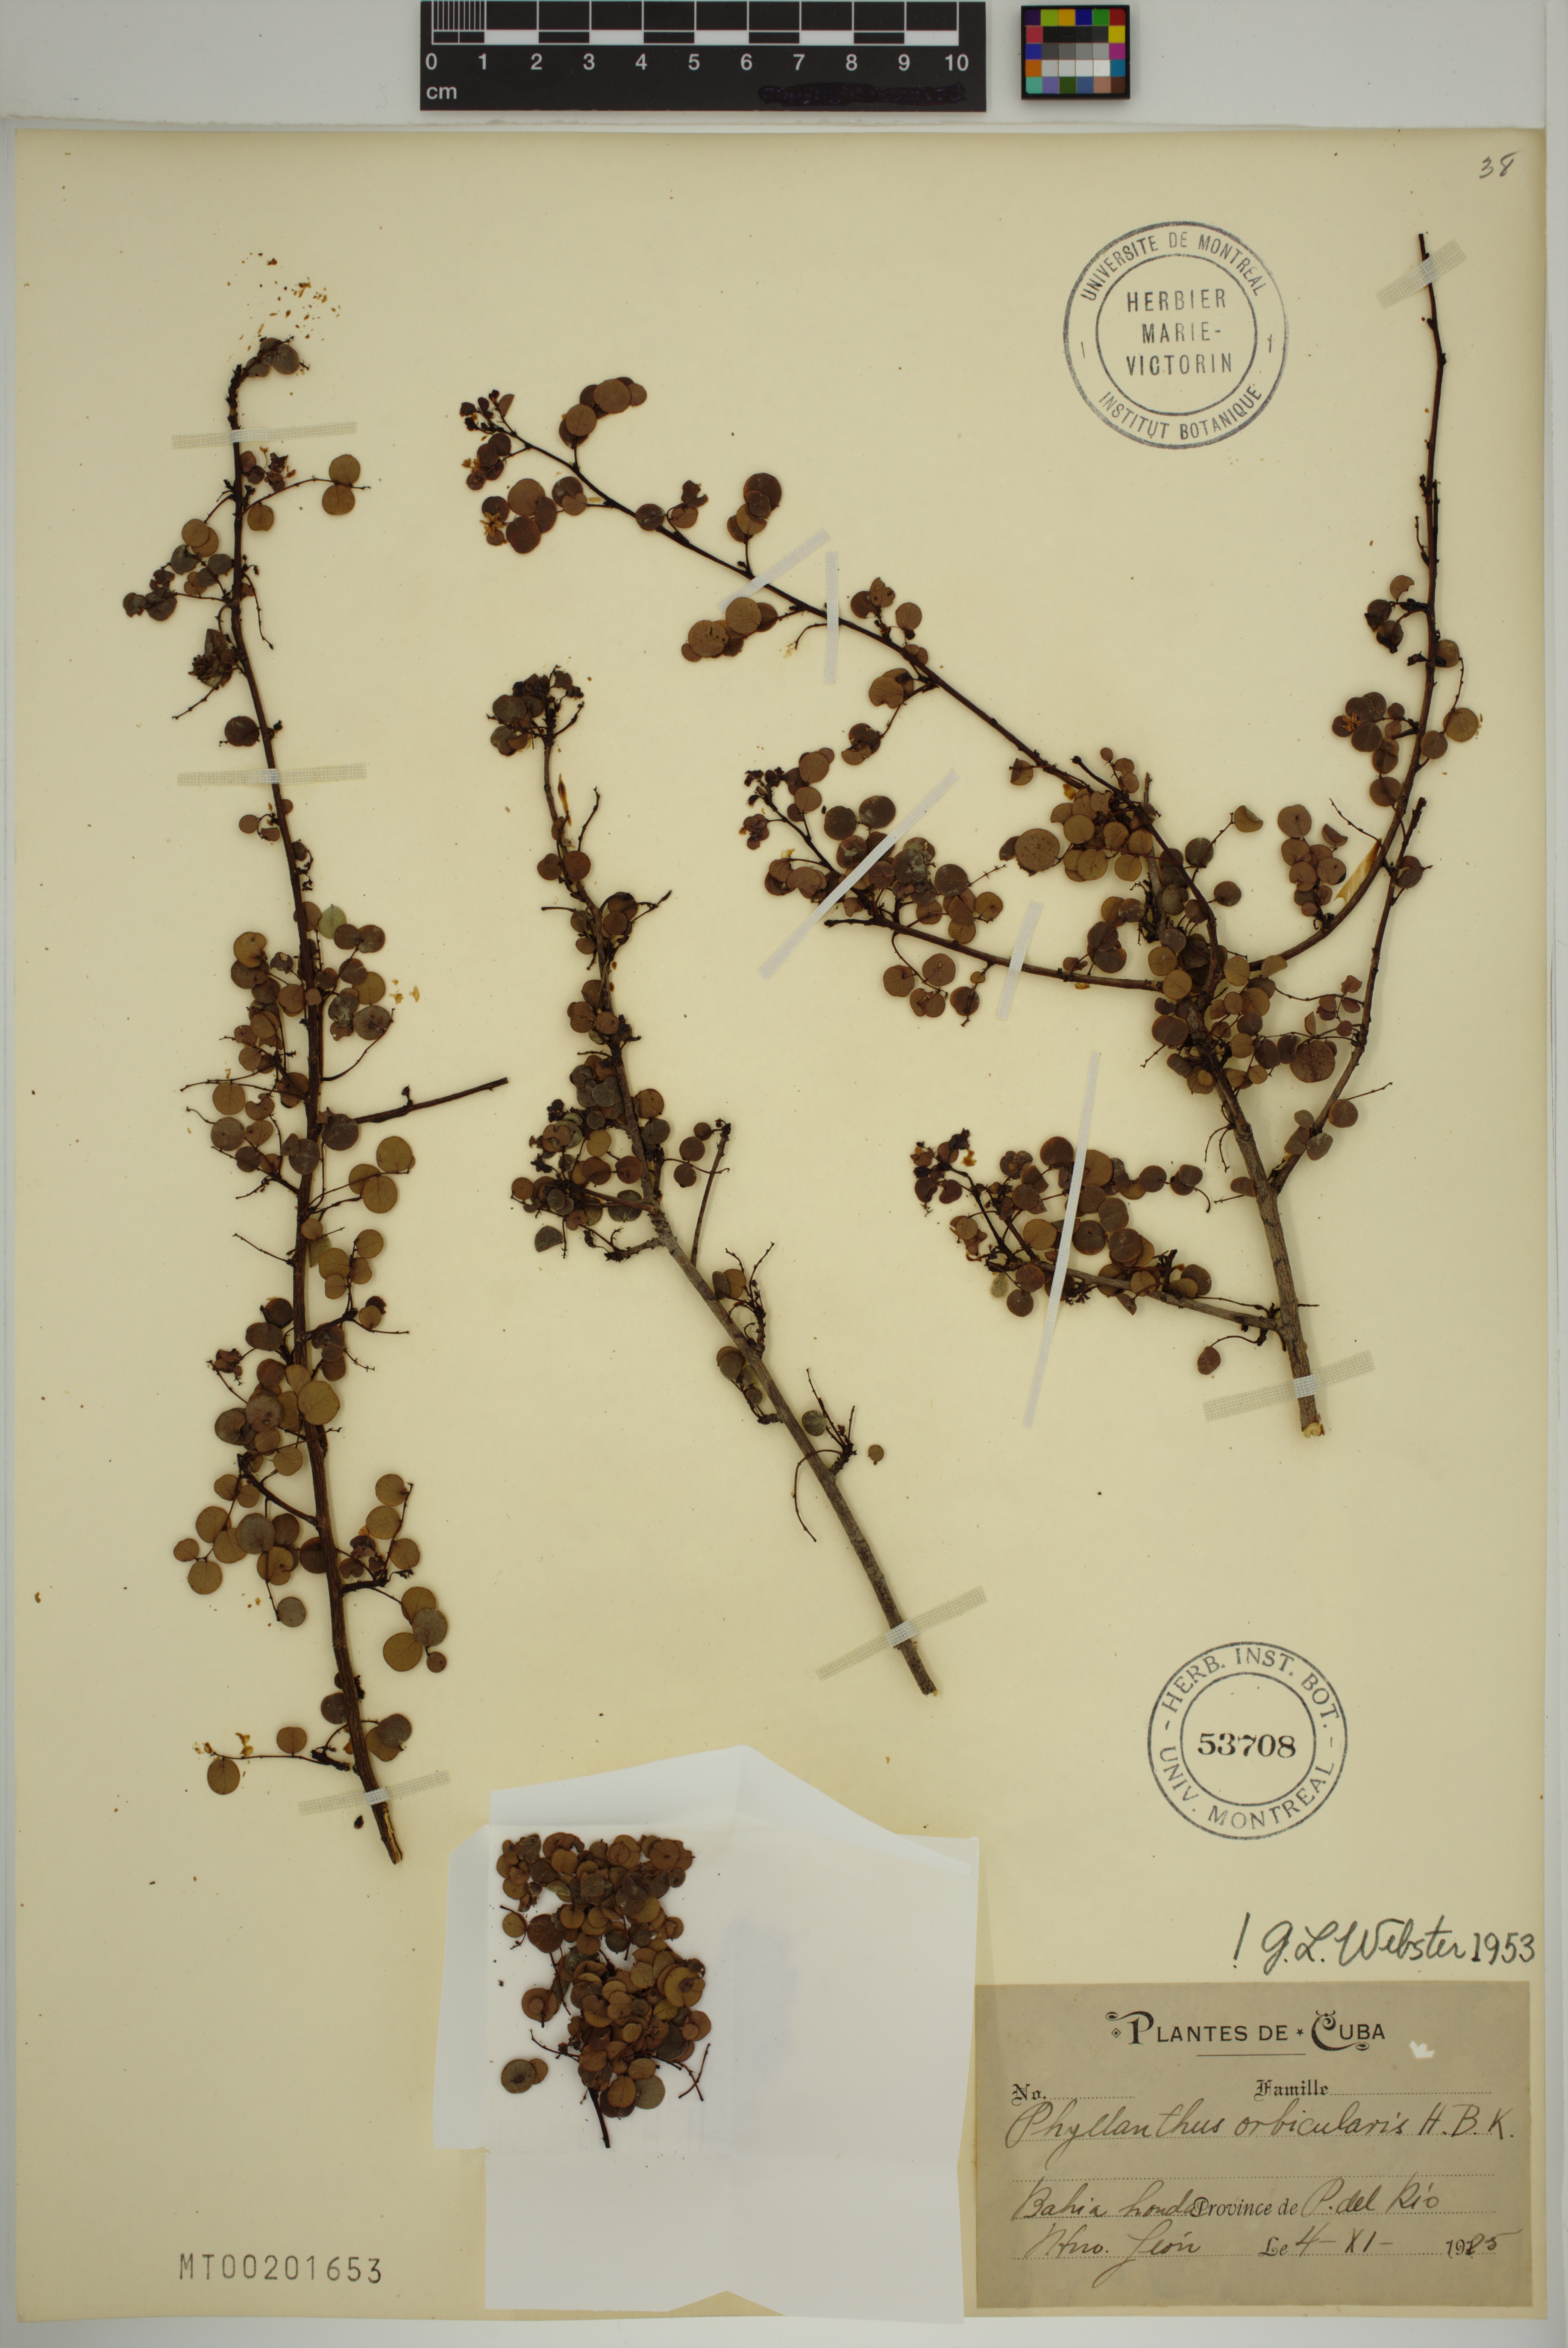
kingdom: Plantae
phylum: Tracheophyta
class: Magnoliopsida
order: Malpighiales
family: Phyllanthaceae
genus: Phyllanthus
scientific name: Phyllanthus orbicularis
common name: Wedge leaf-flower
